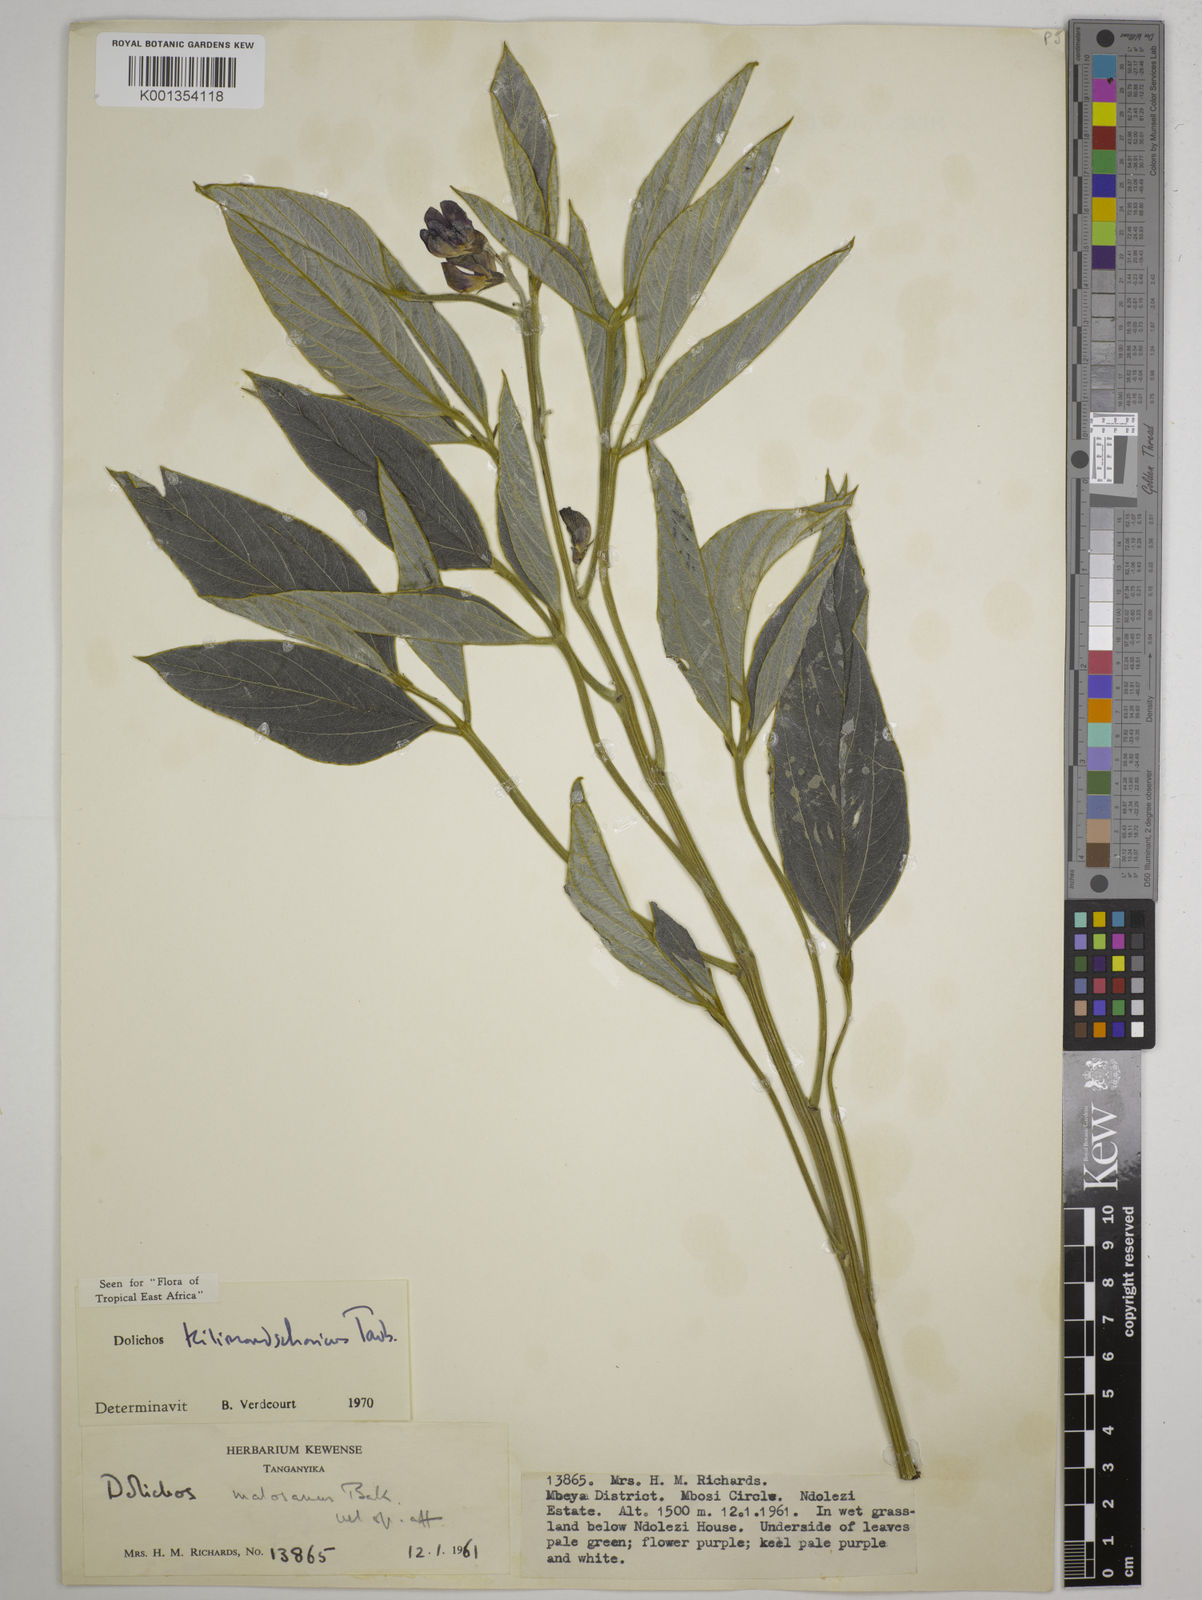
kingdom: Plantae
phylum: Tracheophyta
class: Magnoliopsida
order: Fabales
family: Fabaceae
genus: Dolichos
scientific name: Dolichos kilimandscharicus
